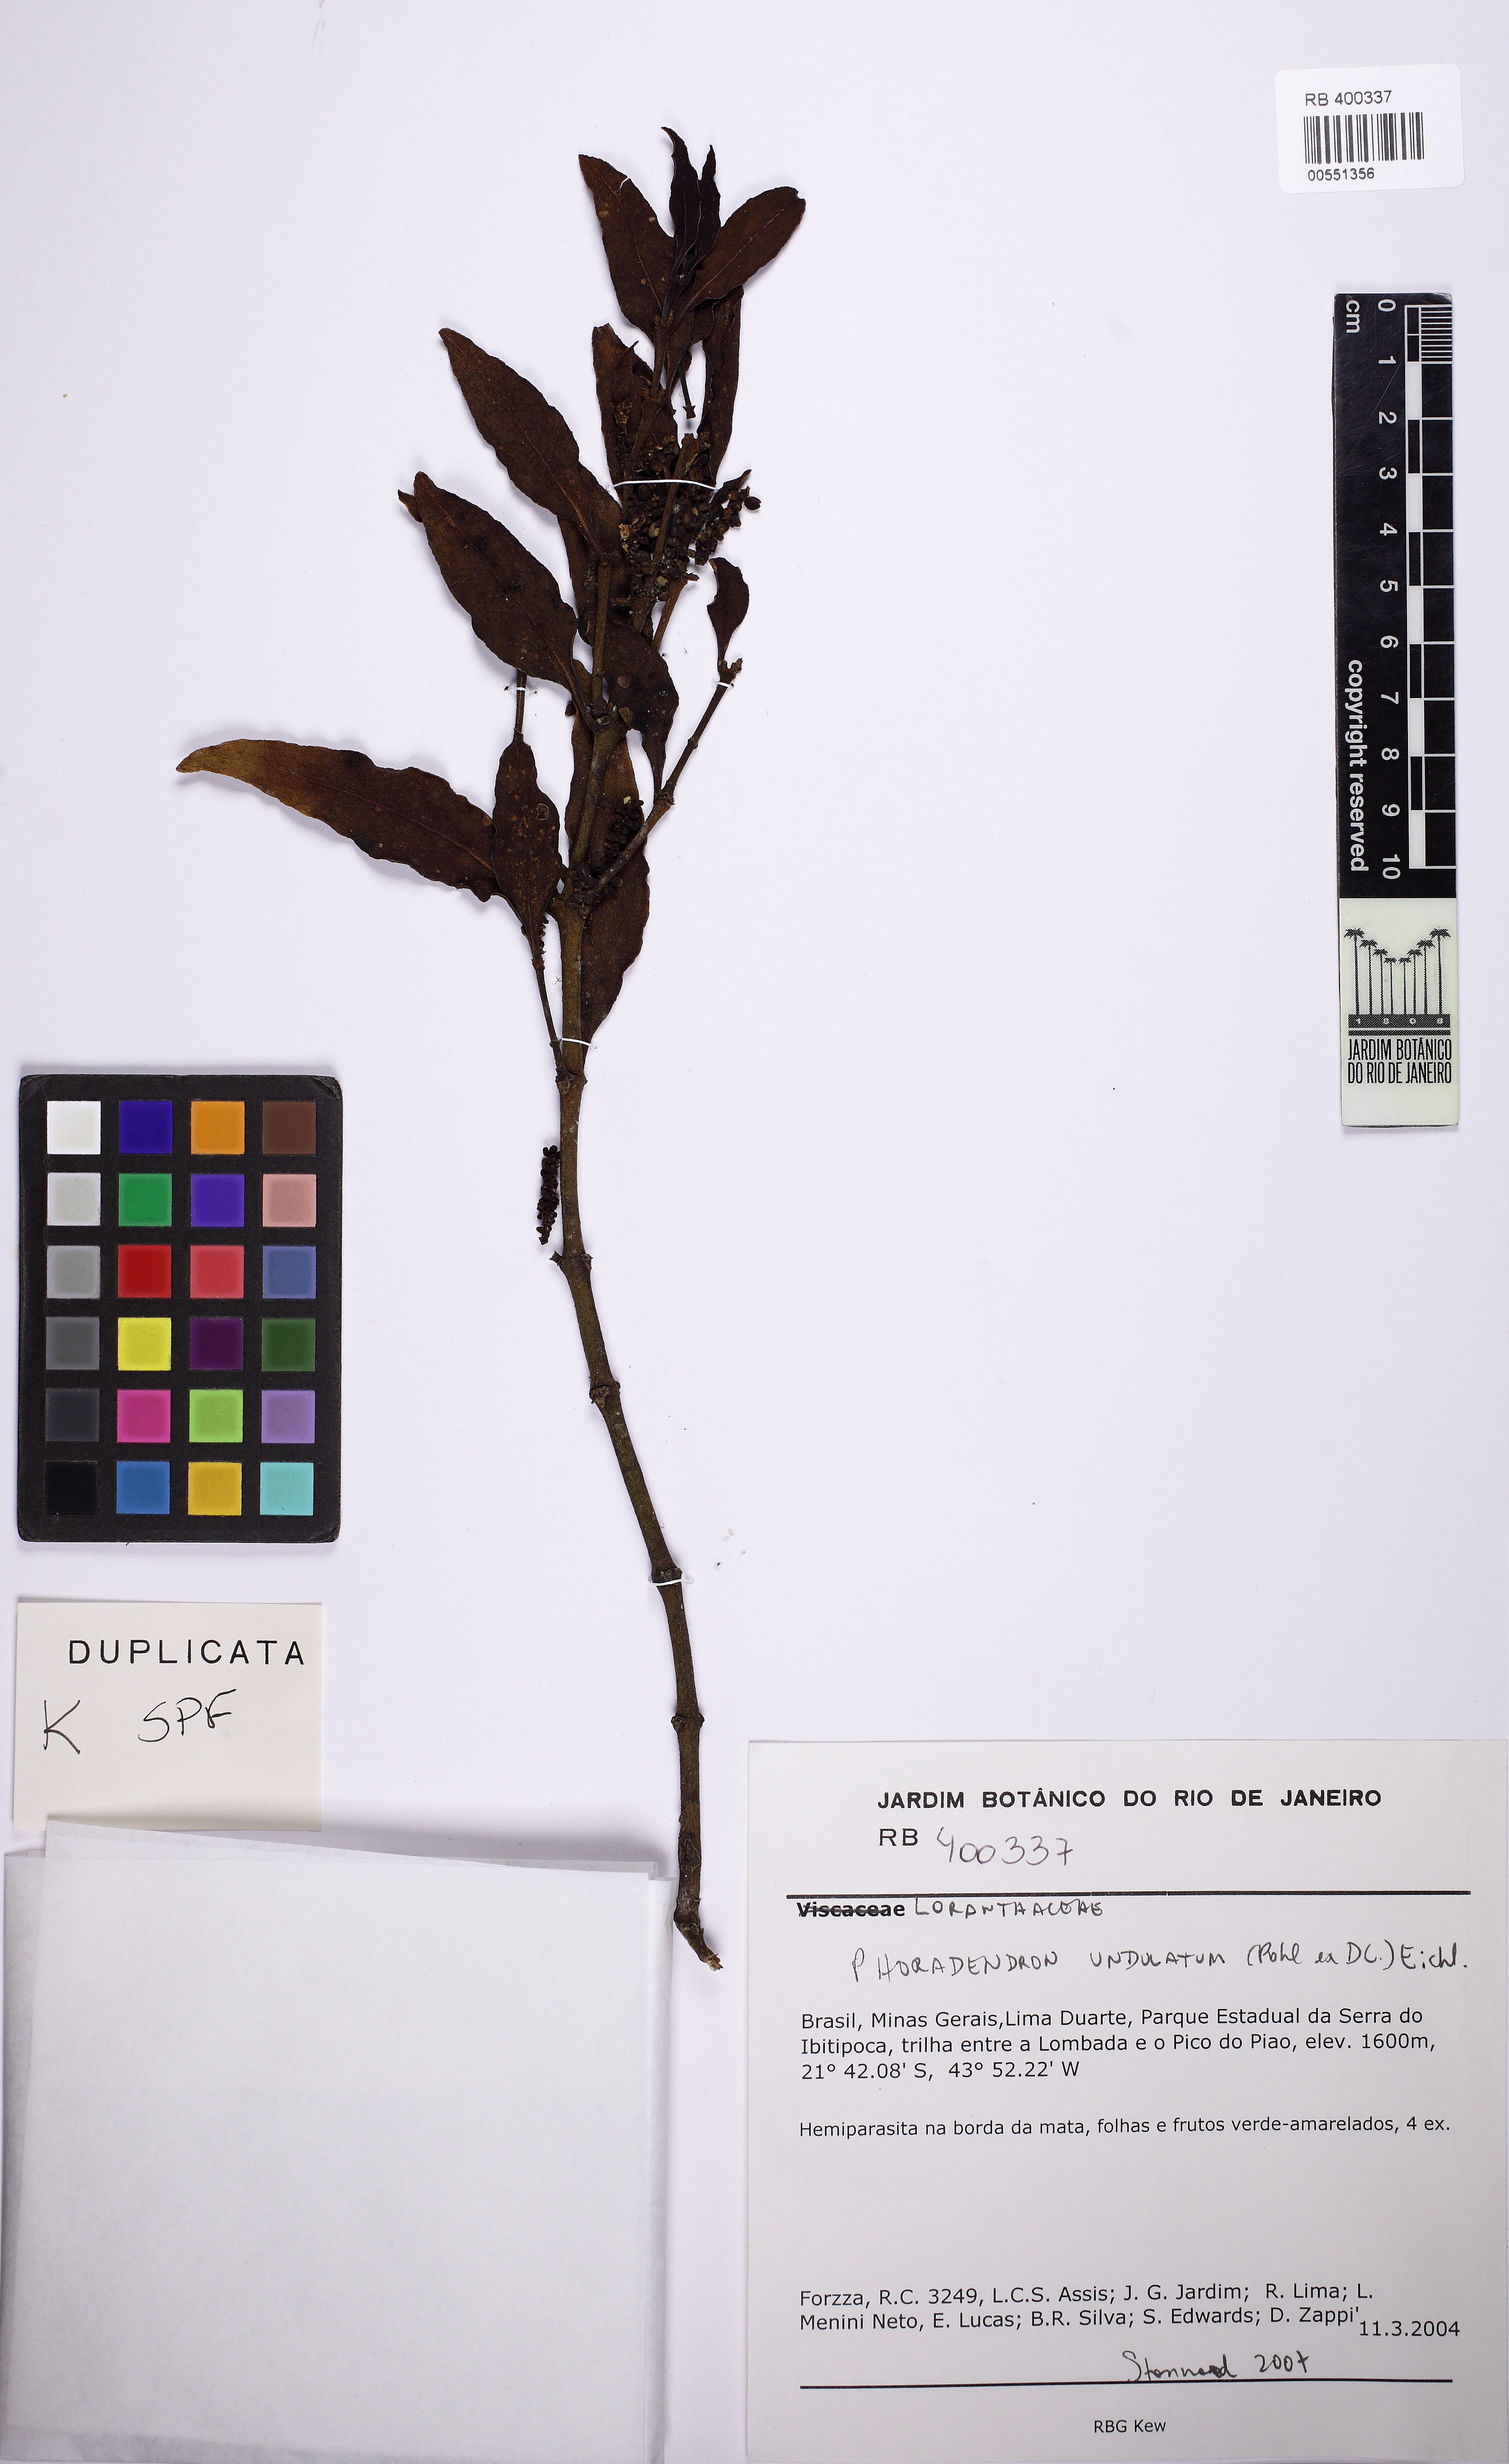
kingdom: Plantae
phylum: Tracheophyta
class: Magnoliopsida
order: Santalales
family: Viscaceae
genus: Phoradendron
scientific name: Phoradendron undulatum
